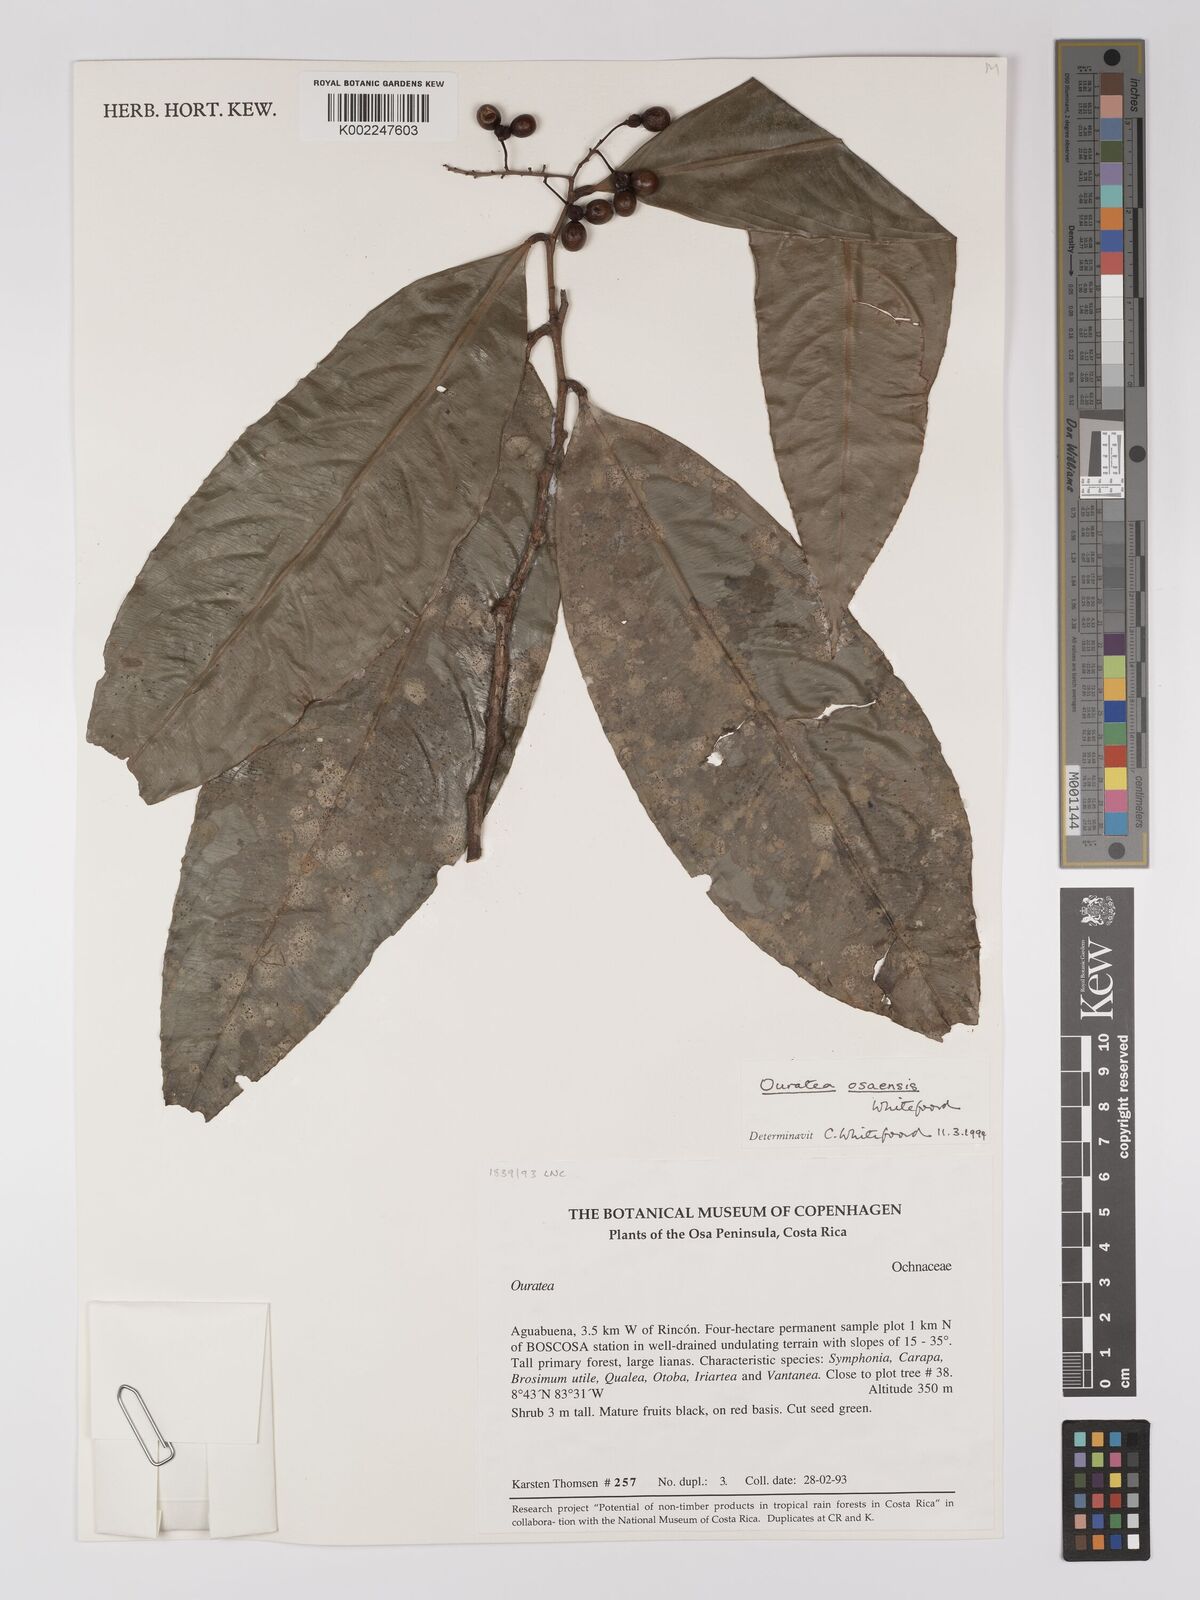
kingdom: Plantae
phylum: Tracheophyta
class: Magnoliopsida
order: Malpighiales
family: Ochnaceae
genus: Ouratea
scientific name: Ouratea osaensis
